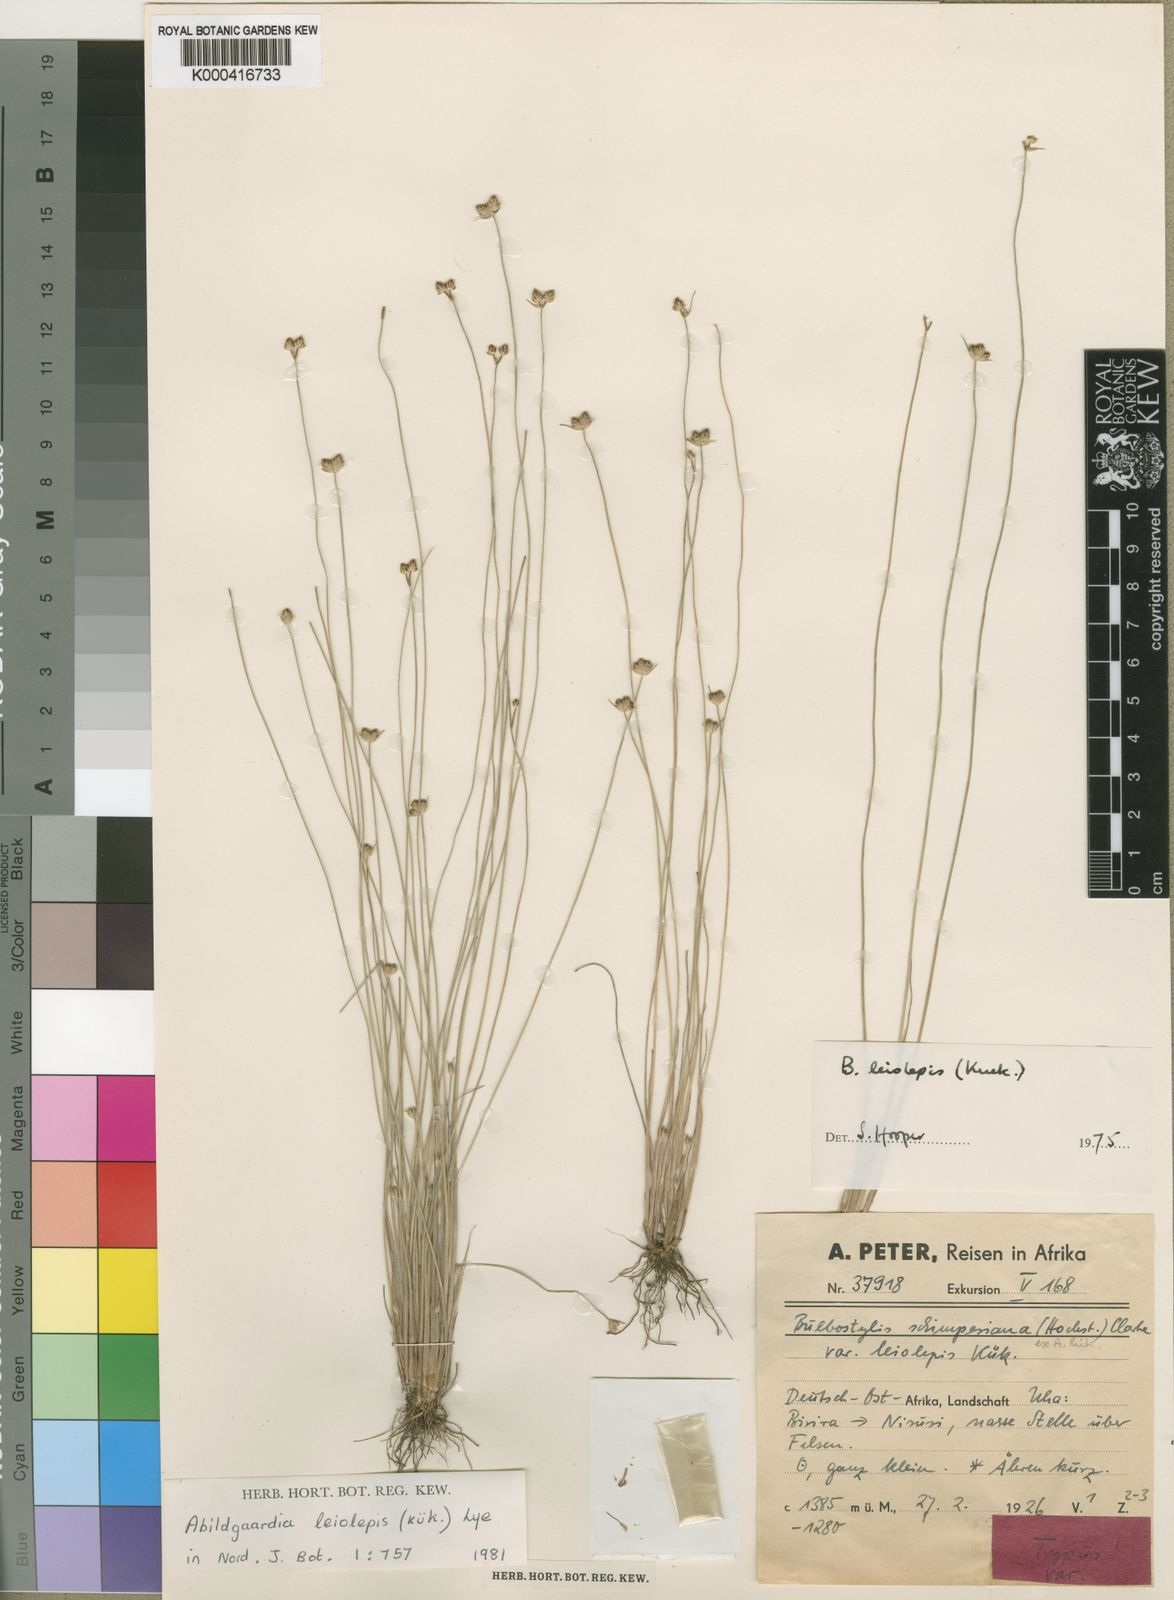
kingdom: Plantae
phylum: Tracheophyta
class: Liliopsida
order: Poales
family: Cyperaceae
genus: Bulbostylis
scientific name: Bulbostylis
